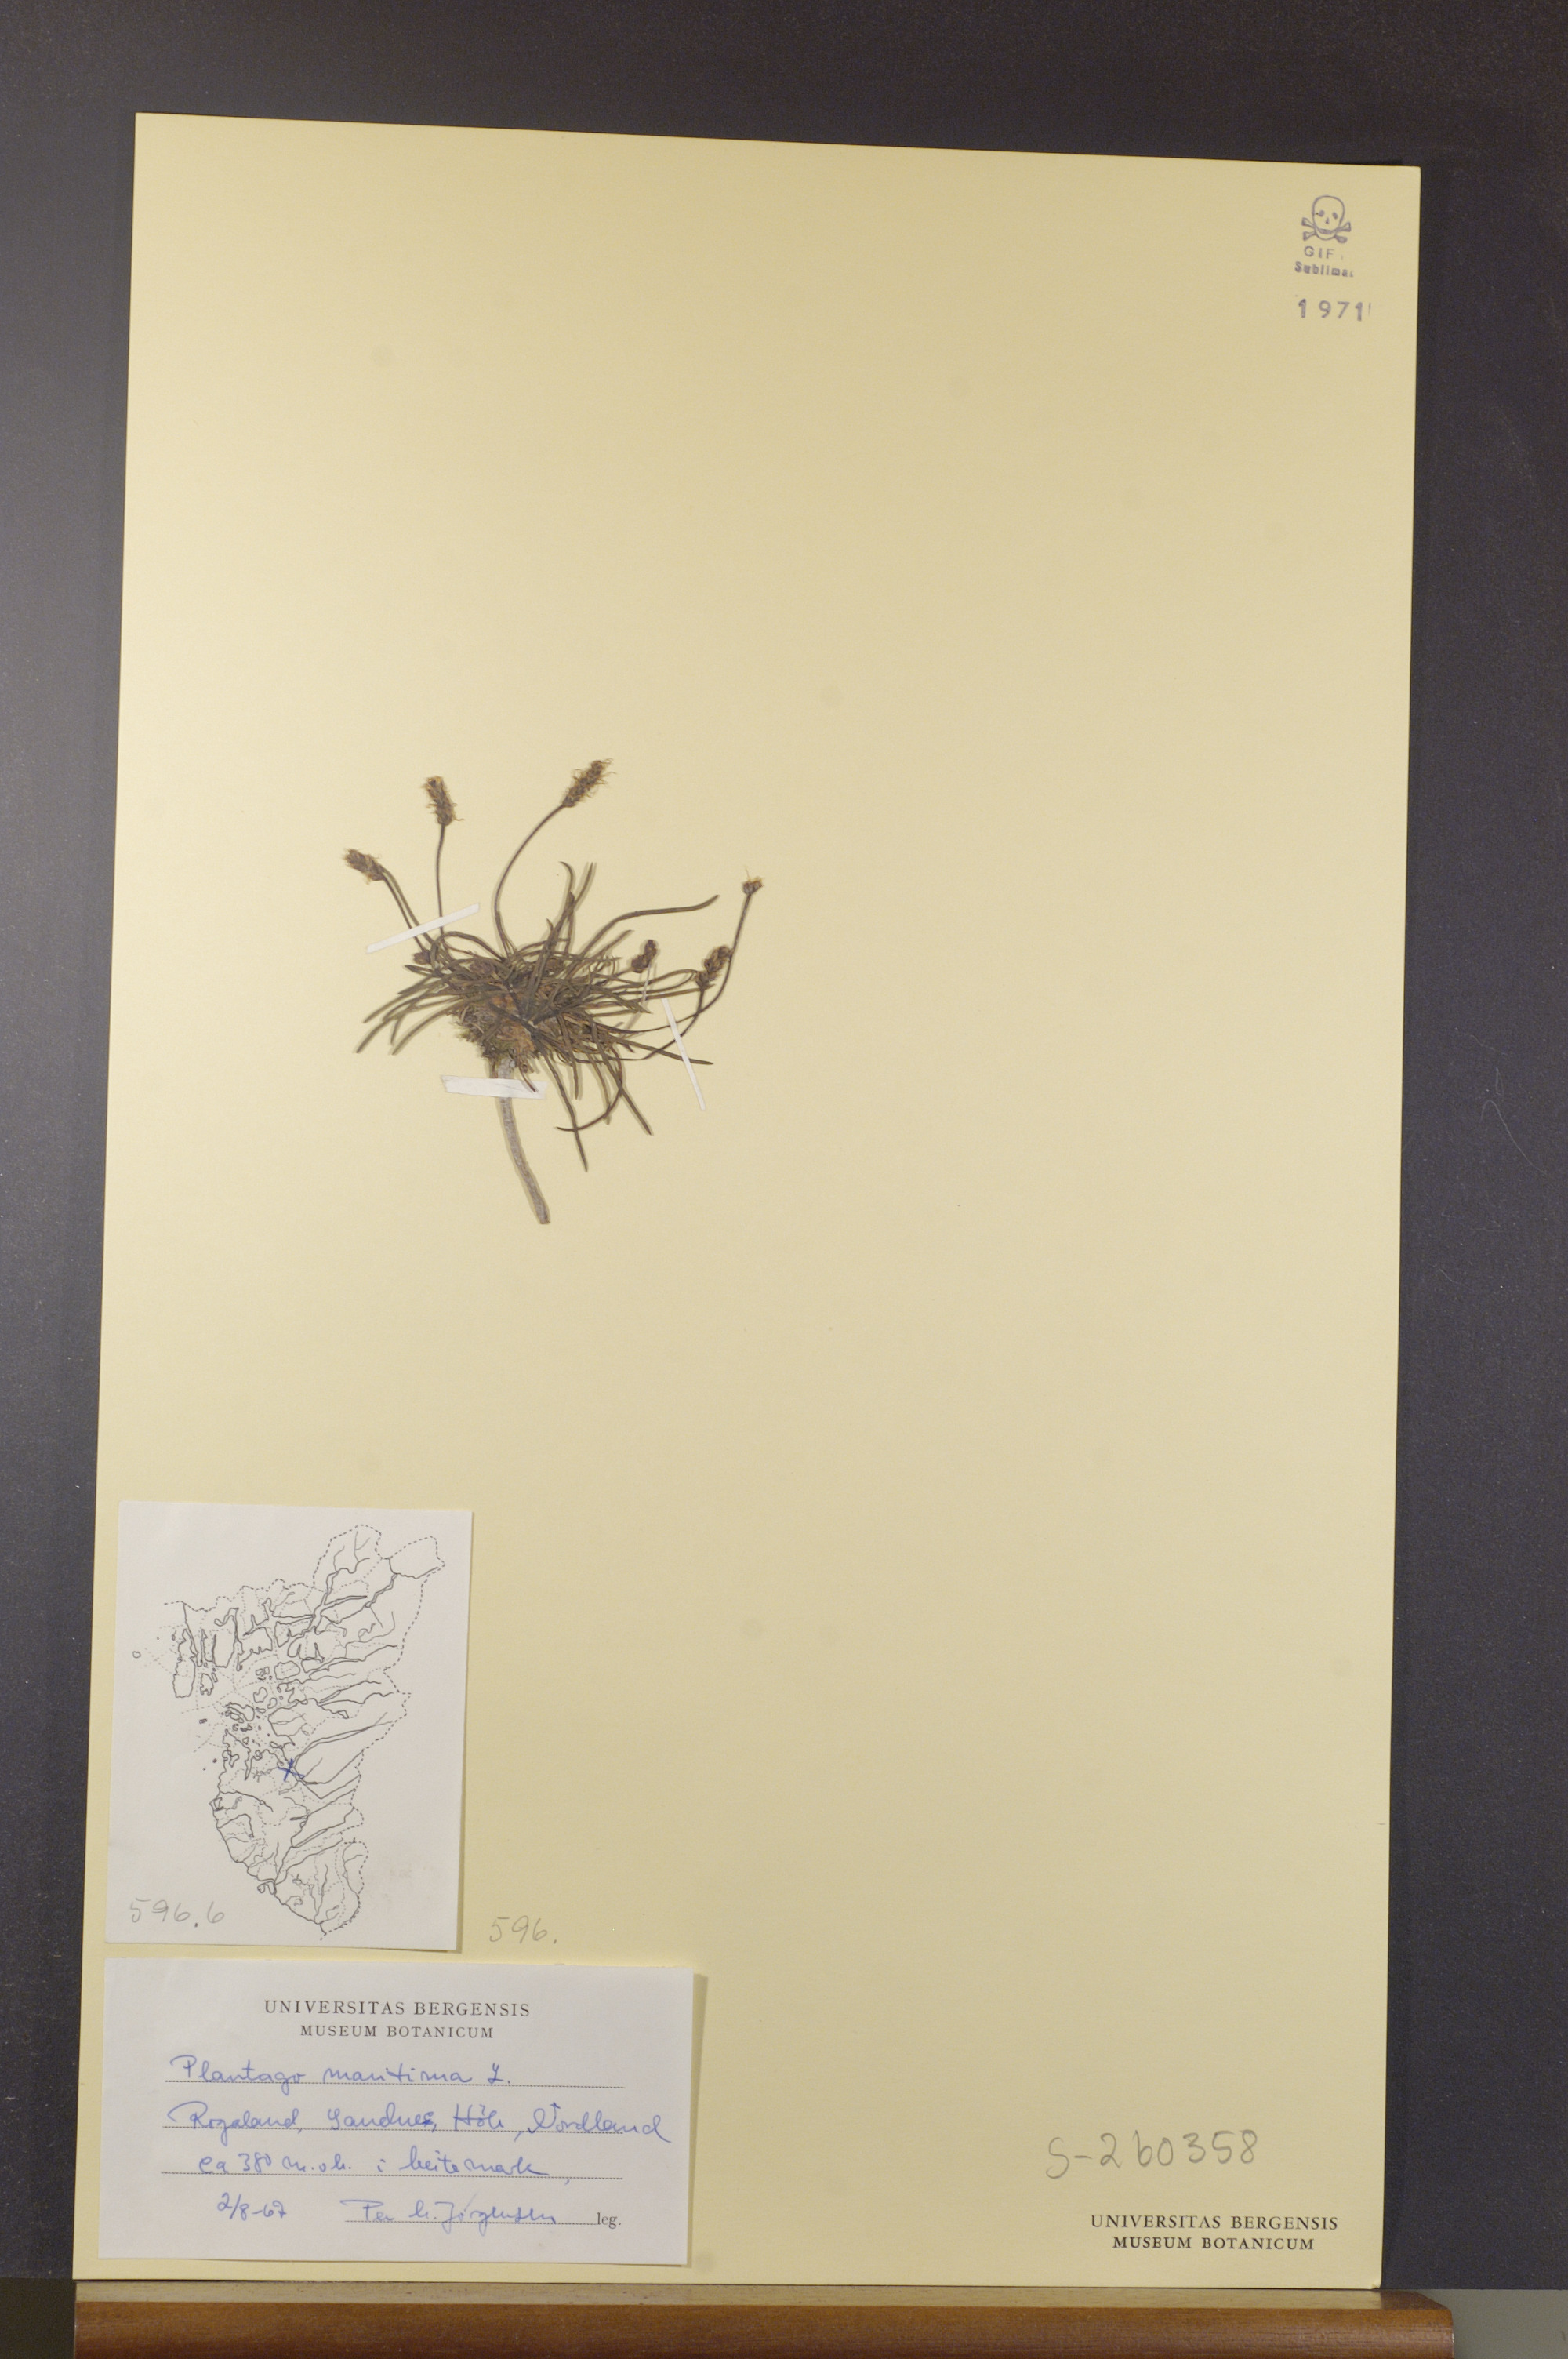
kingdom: Plantae
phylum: Tracheophyta
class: Magnoliopsida
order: Lamiales
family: Plantaginaceae
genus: Plantago
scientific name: Plantago maritima
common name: Sea plantain
